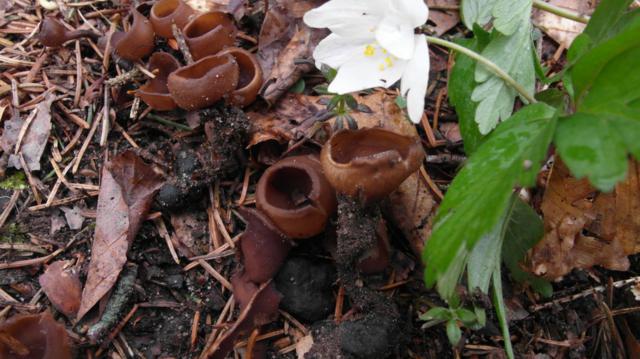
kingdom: Fungi
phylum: Ascomycota
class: Leotiomycetes
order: Helotiales
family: Sclerotiniaceae
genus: Dumontinia
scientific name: Dumontinia tuberosa
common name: anemone-knoldskive
